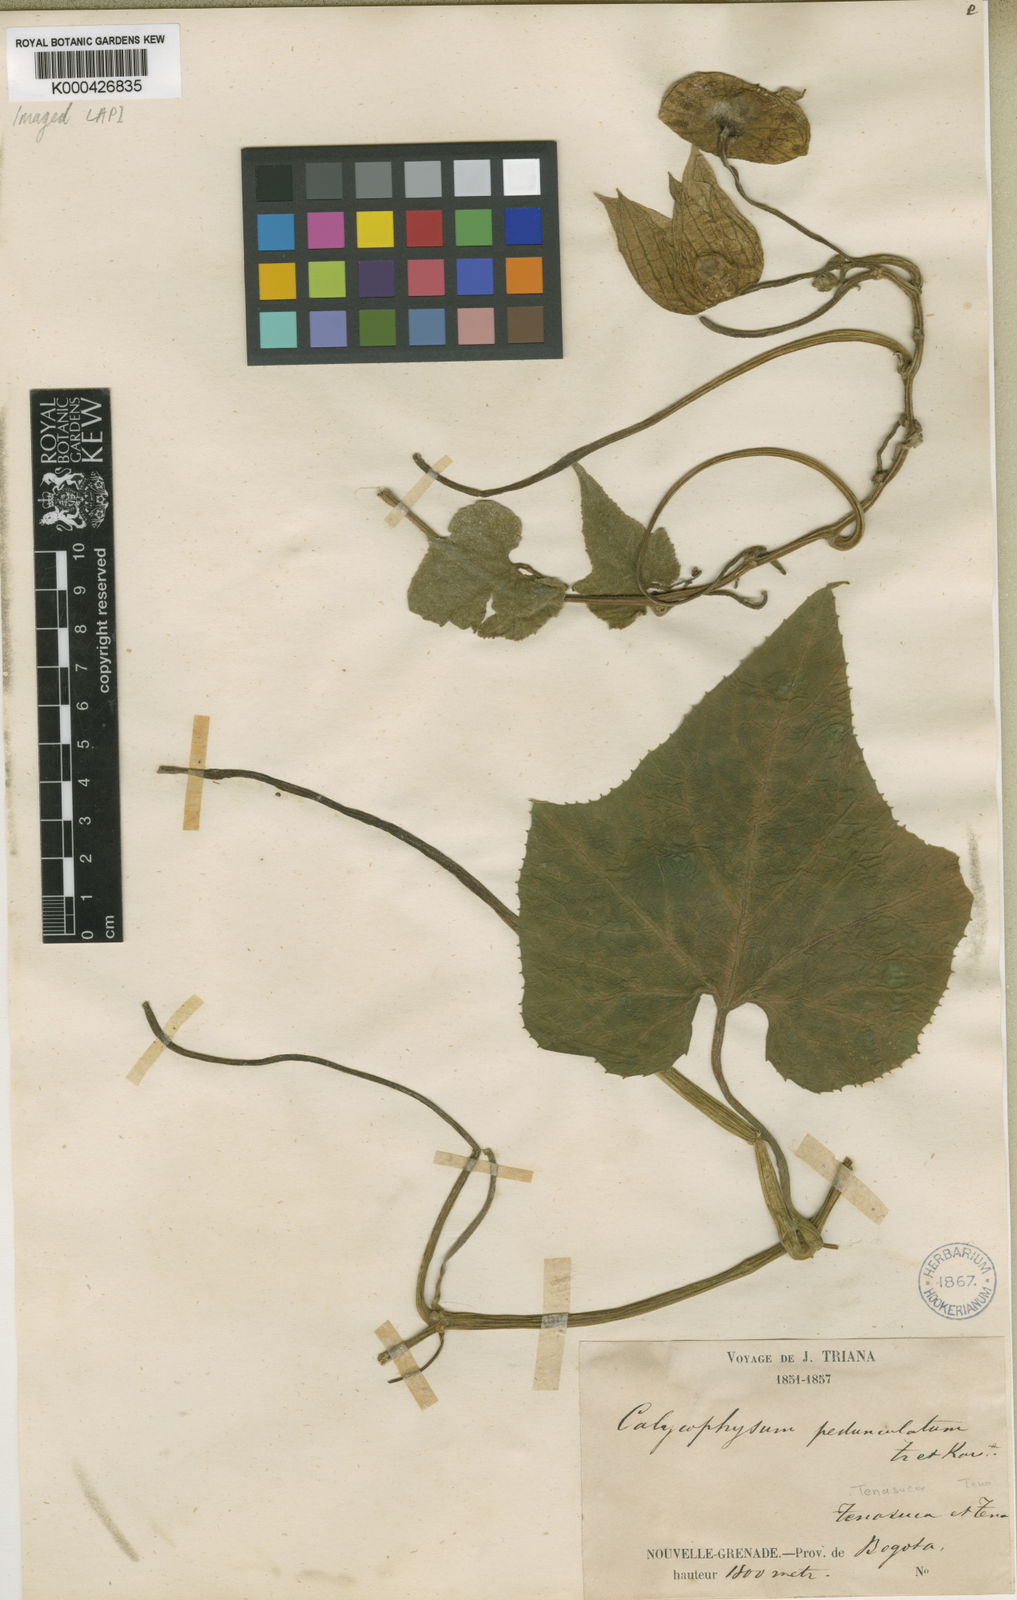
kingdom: Plantae
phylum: Tracheophyta
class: Magnoliopsida
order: Cucurbitales
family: Cucurbitaceae
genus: Calycophysum
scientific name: Calycophysum pedunculatum
